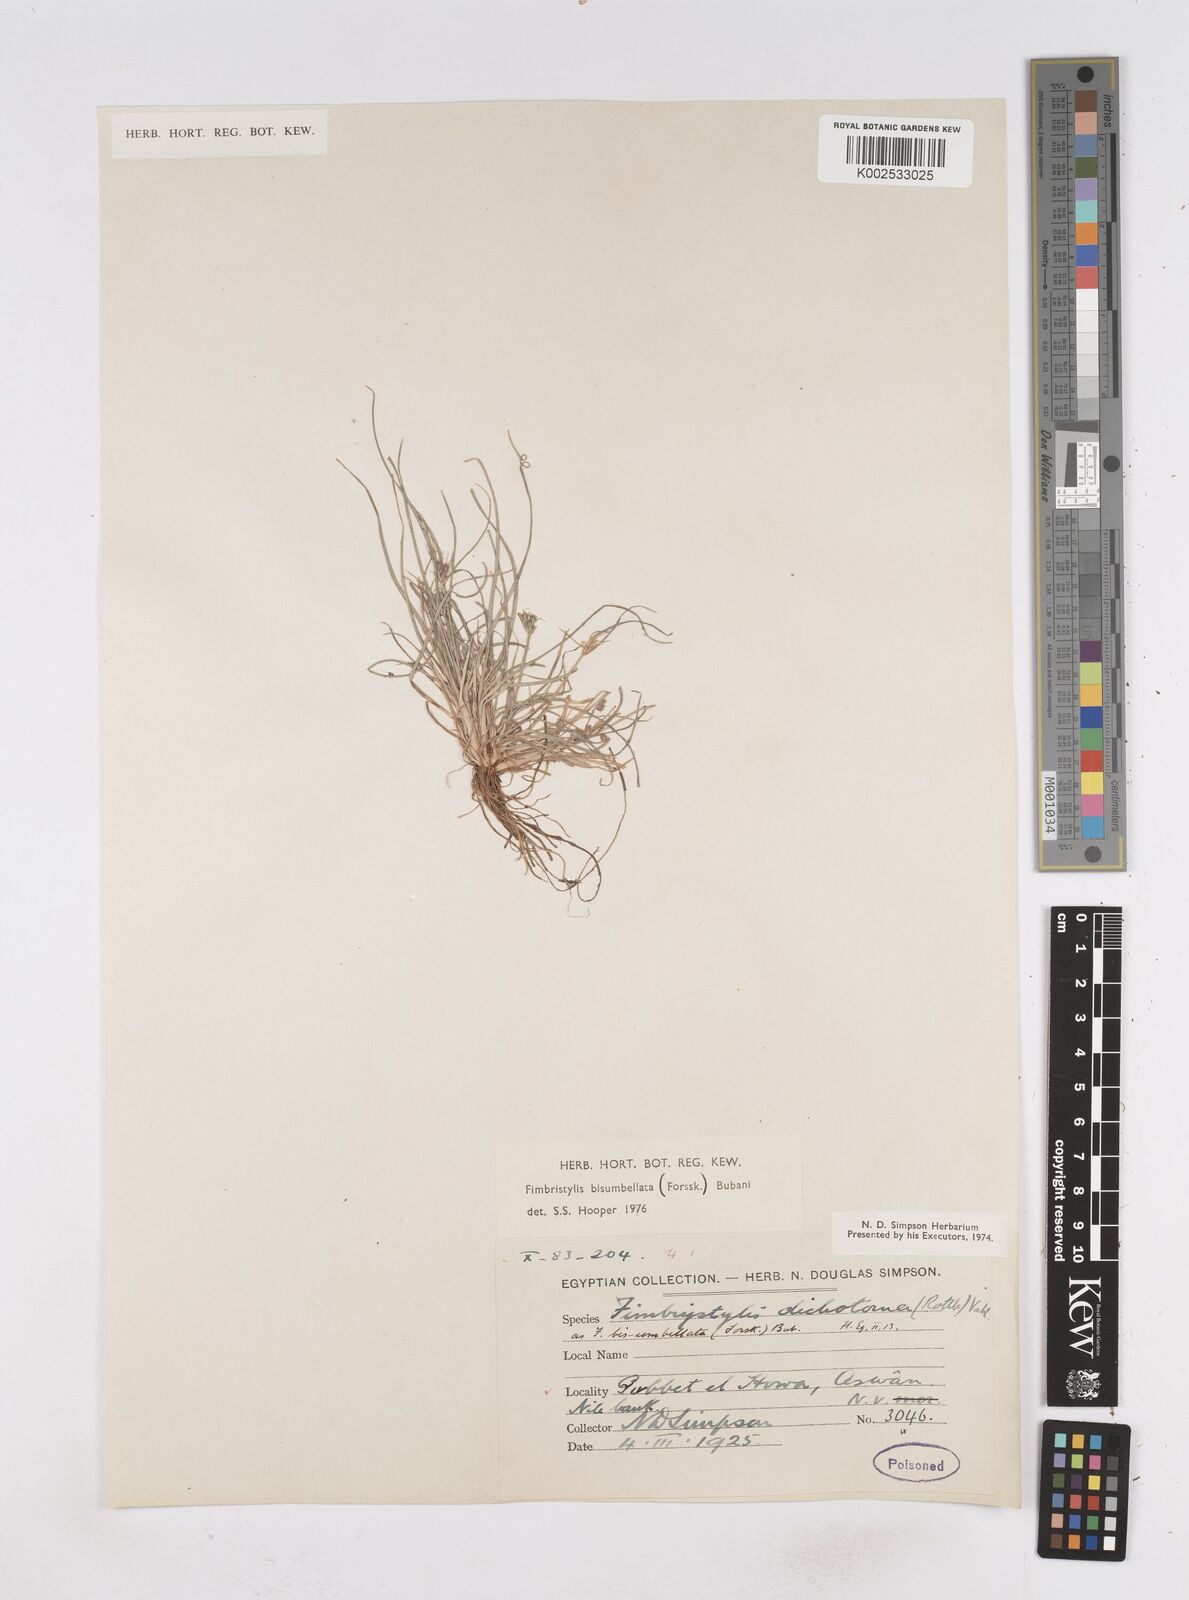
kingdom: Plantae
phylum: Tracheophyta
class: Liliopsida
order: Poales
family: Cyperaceae
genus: Fimbristylis
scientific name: Fimbristylis bisumbellata
